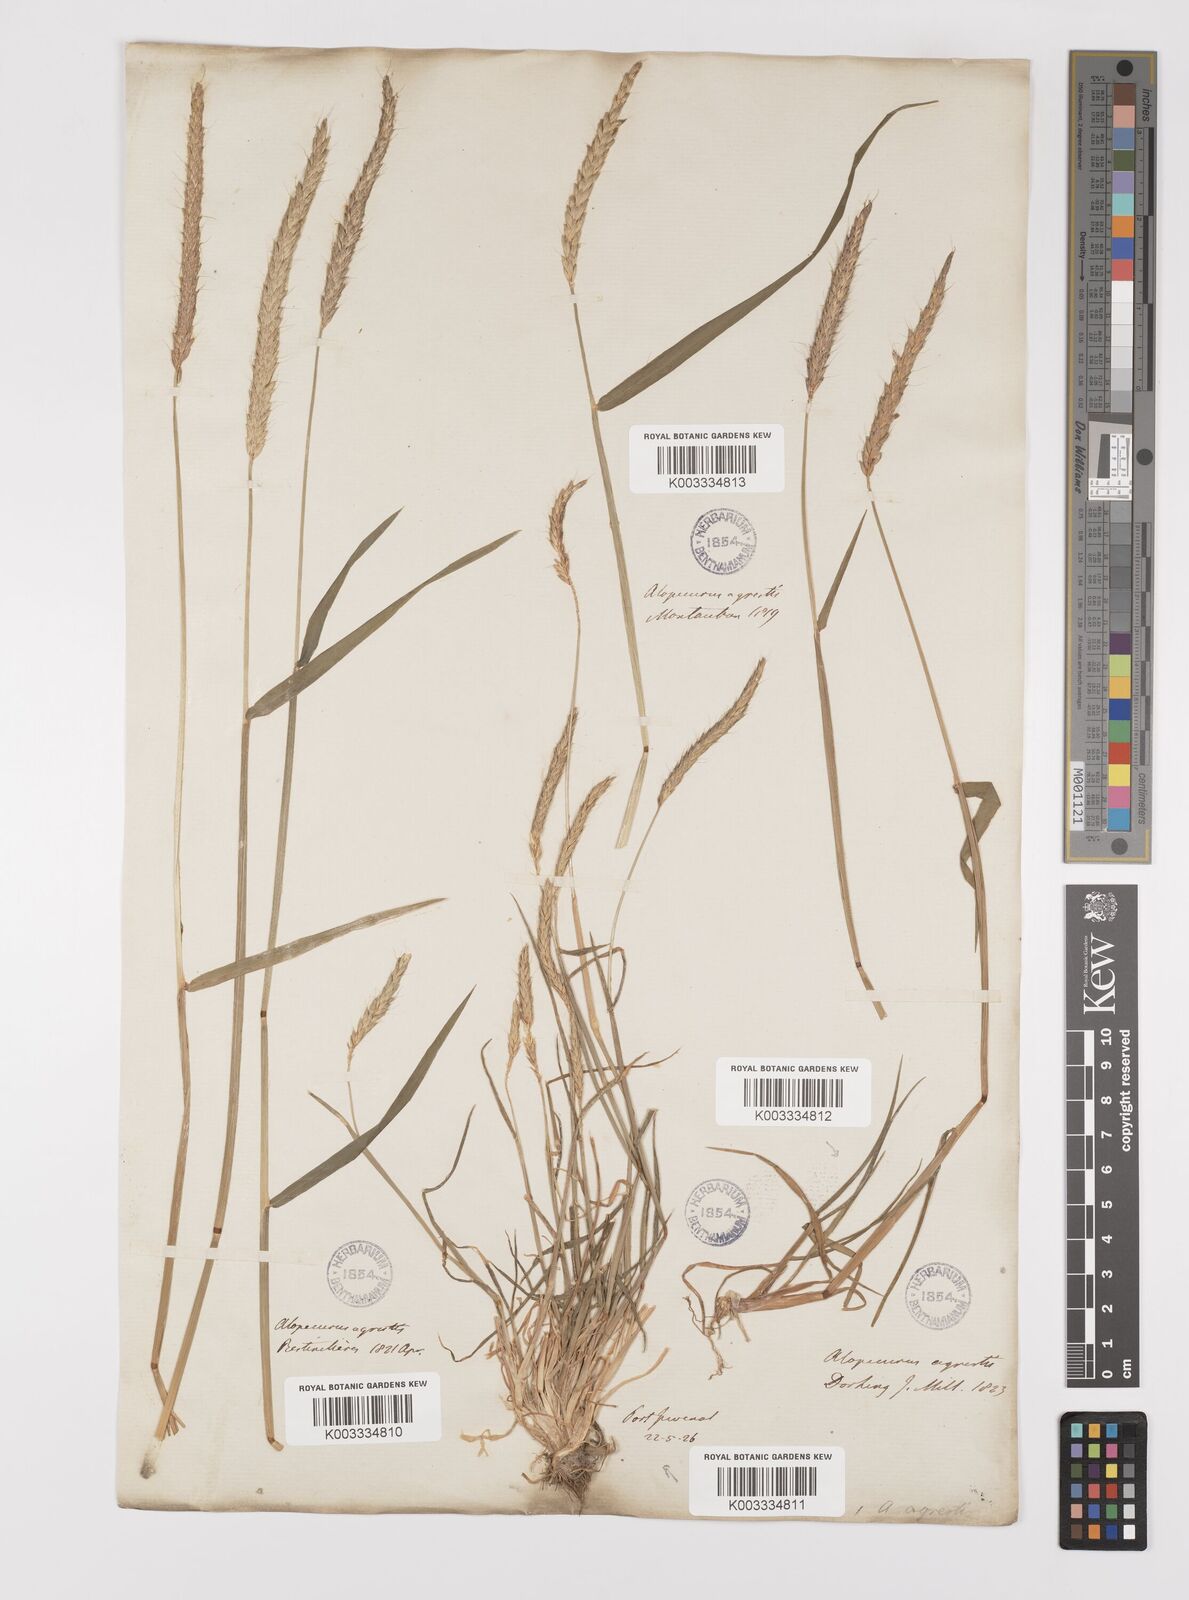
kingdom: Plantae
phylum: Tracheophyta
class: Liliopsida
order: Poales
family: Poaceae
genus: Alopecurus
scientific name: Alopecurus myosuroides
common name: Black-grass
